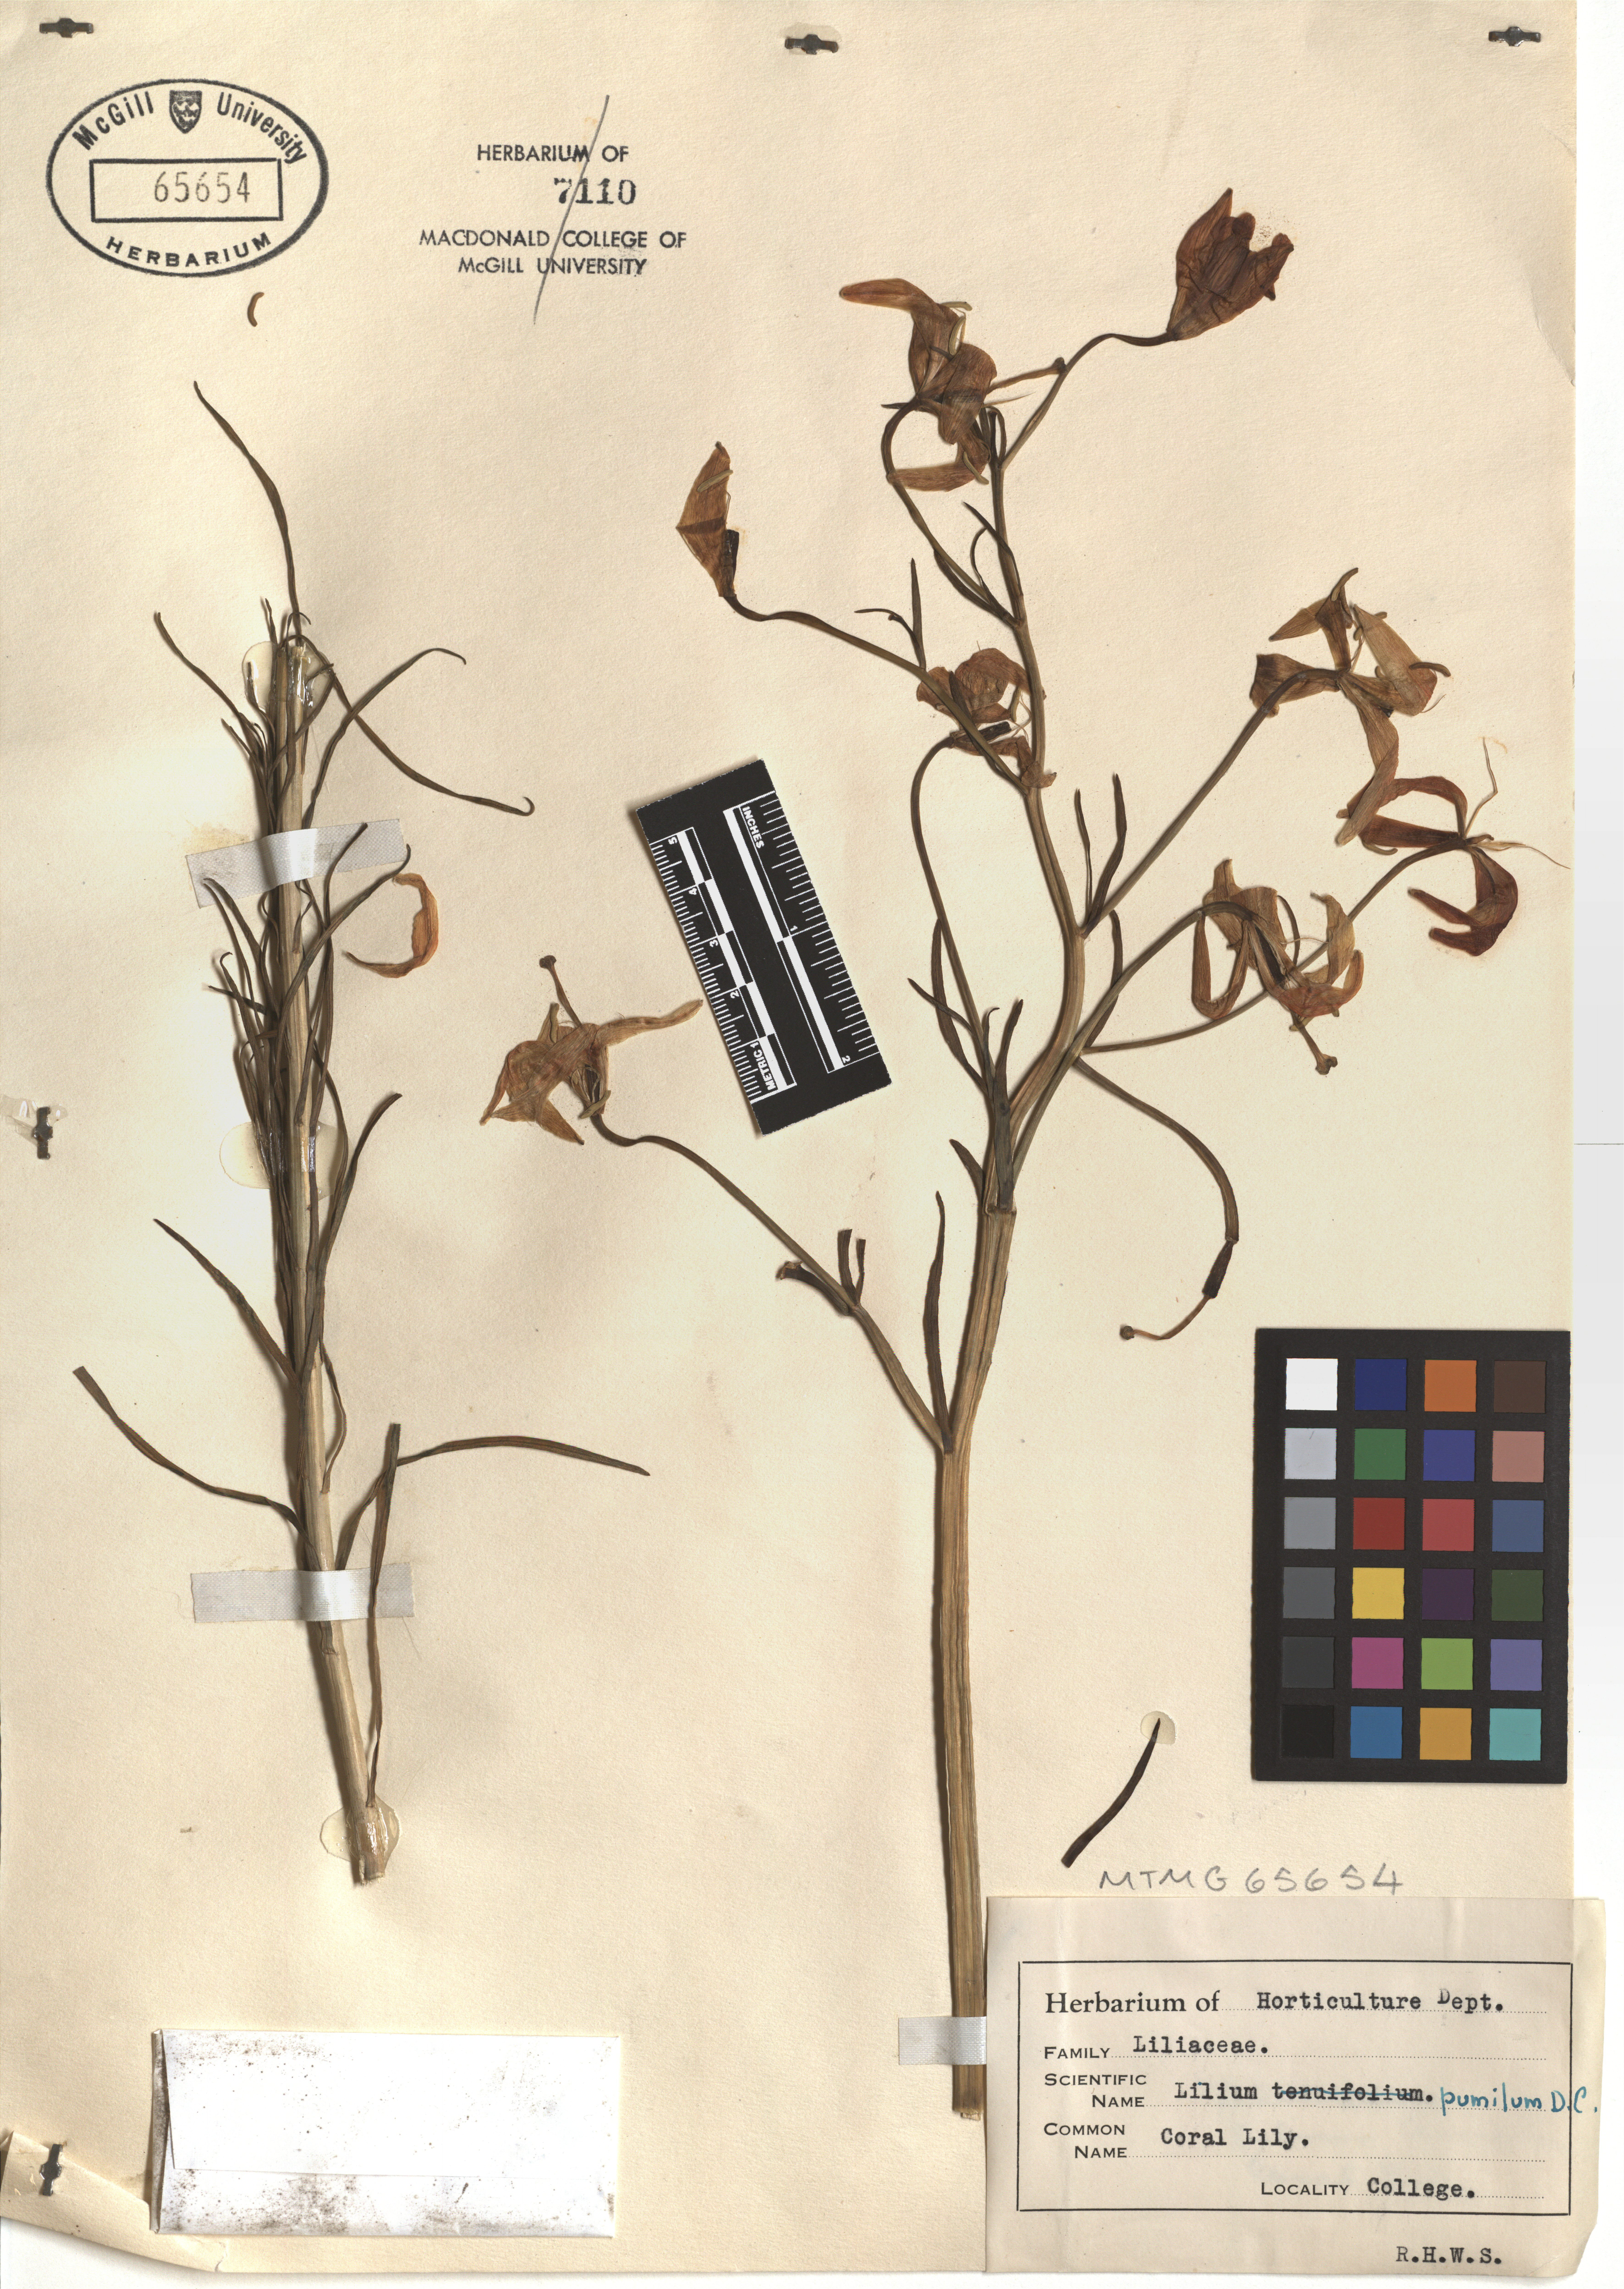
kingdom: Plantae
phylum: Tracheophyta
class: Liliopsida
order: Liliales
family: Liliaceae
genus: Lilium
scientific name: Lilium pumilum
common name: Coral lily
